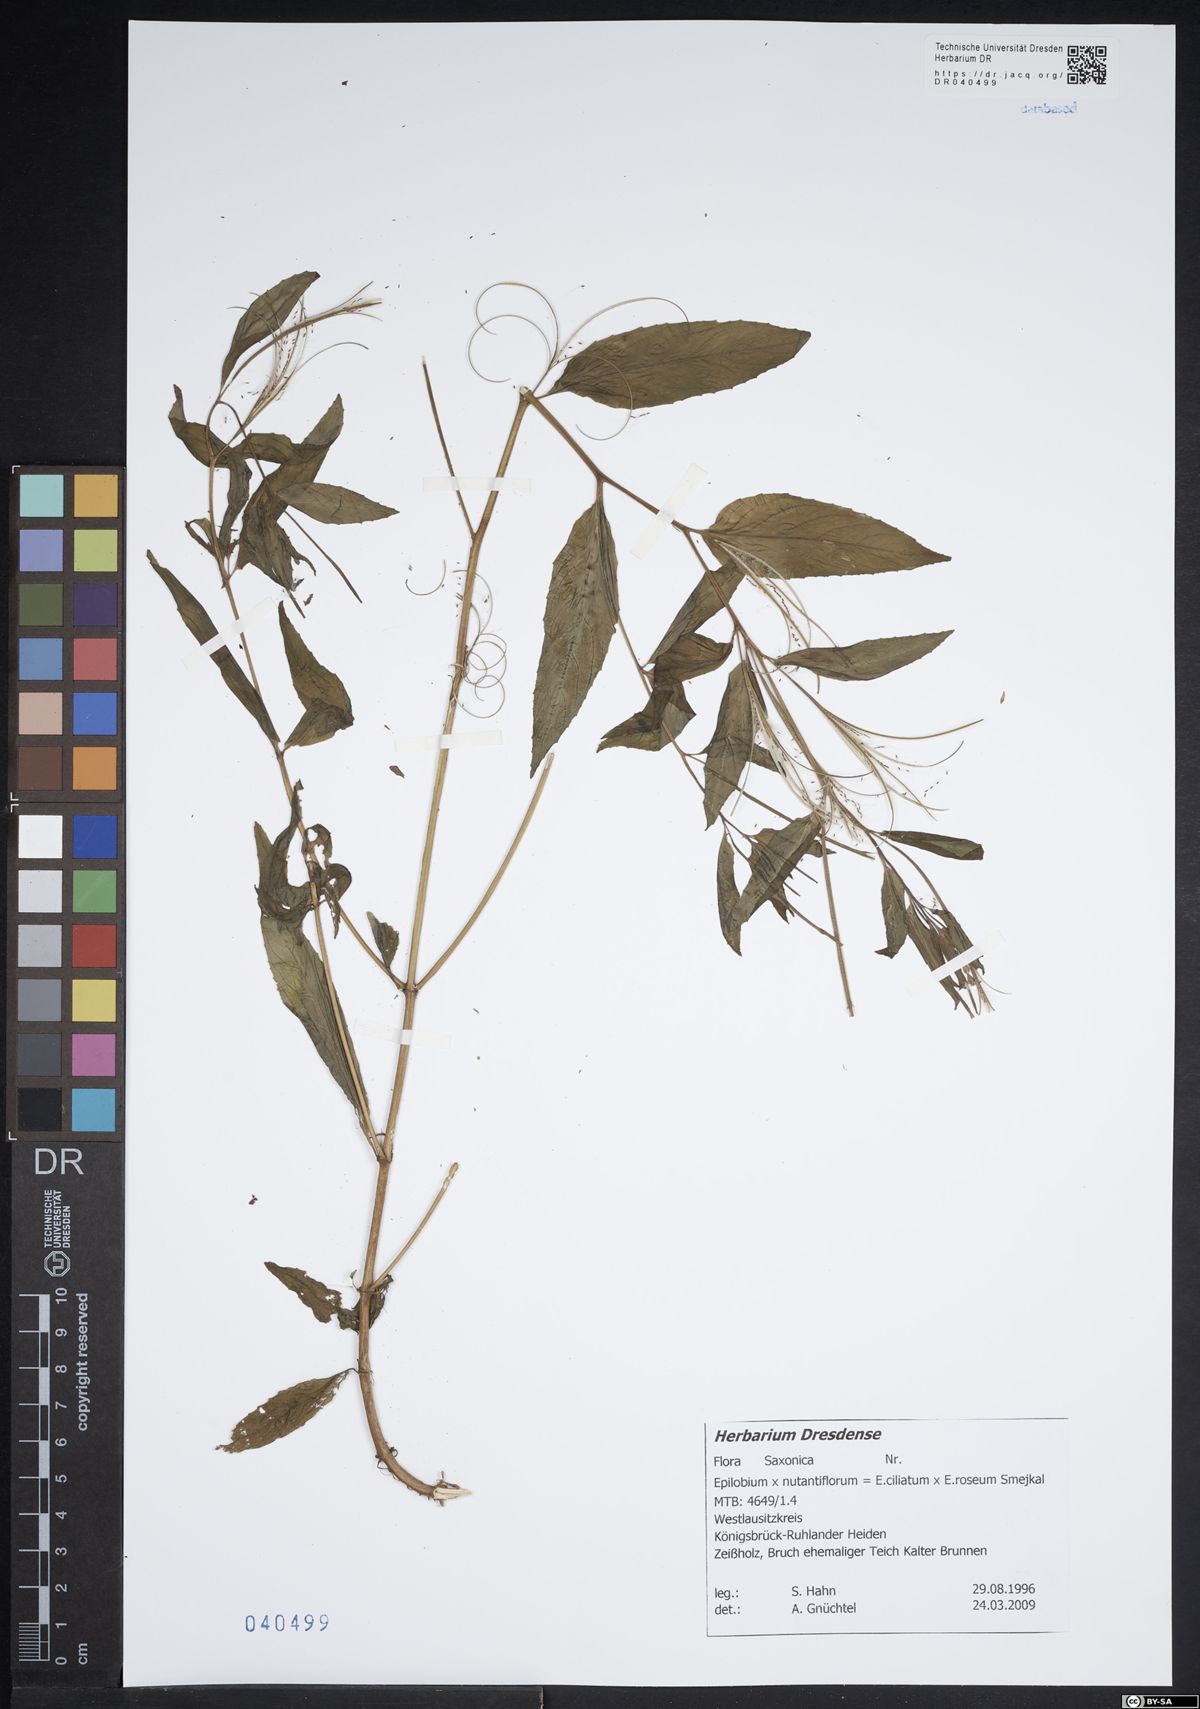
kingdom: Plantae
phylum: Tracheophyta
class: Magnoliopsida
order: Myrtales
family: Onagraceae
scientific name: Onagraceae
